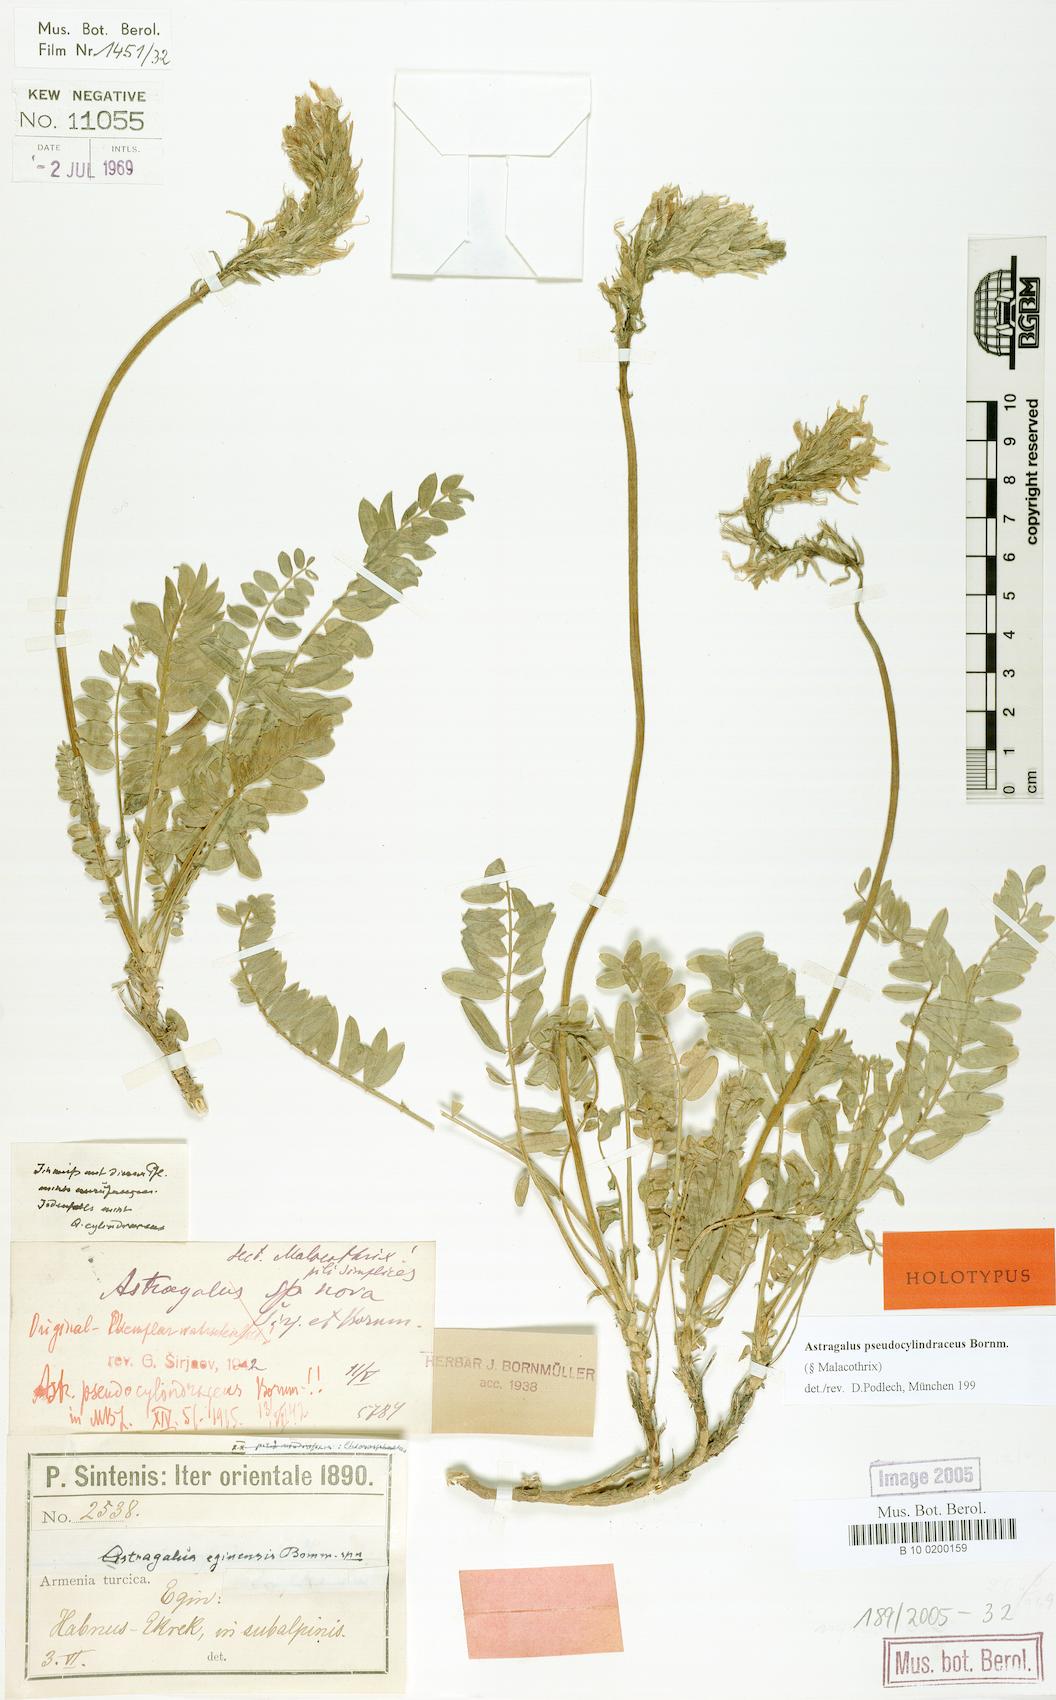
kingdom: Plantae
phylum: Tracheophyta
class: Magnoliopsida
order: Fabales
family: Fabaceae
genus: Astragalus
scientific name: Astragalus pseudocylindraceus
